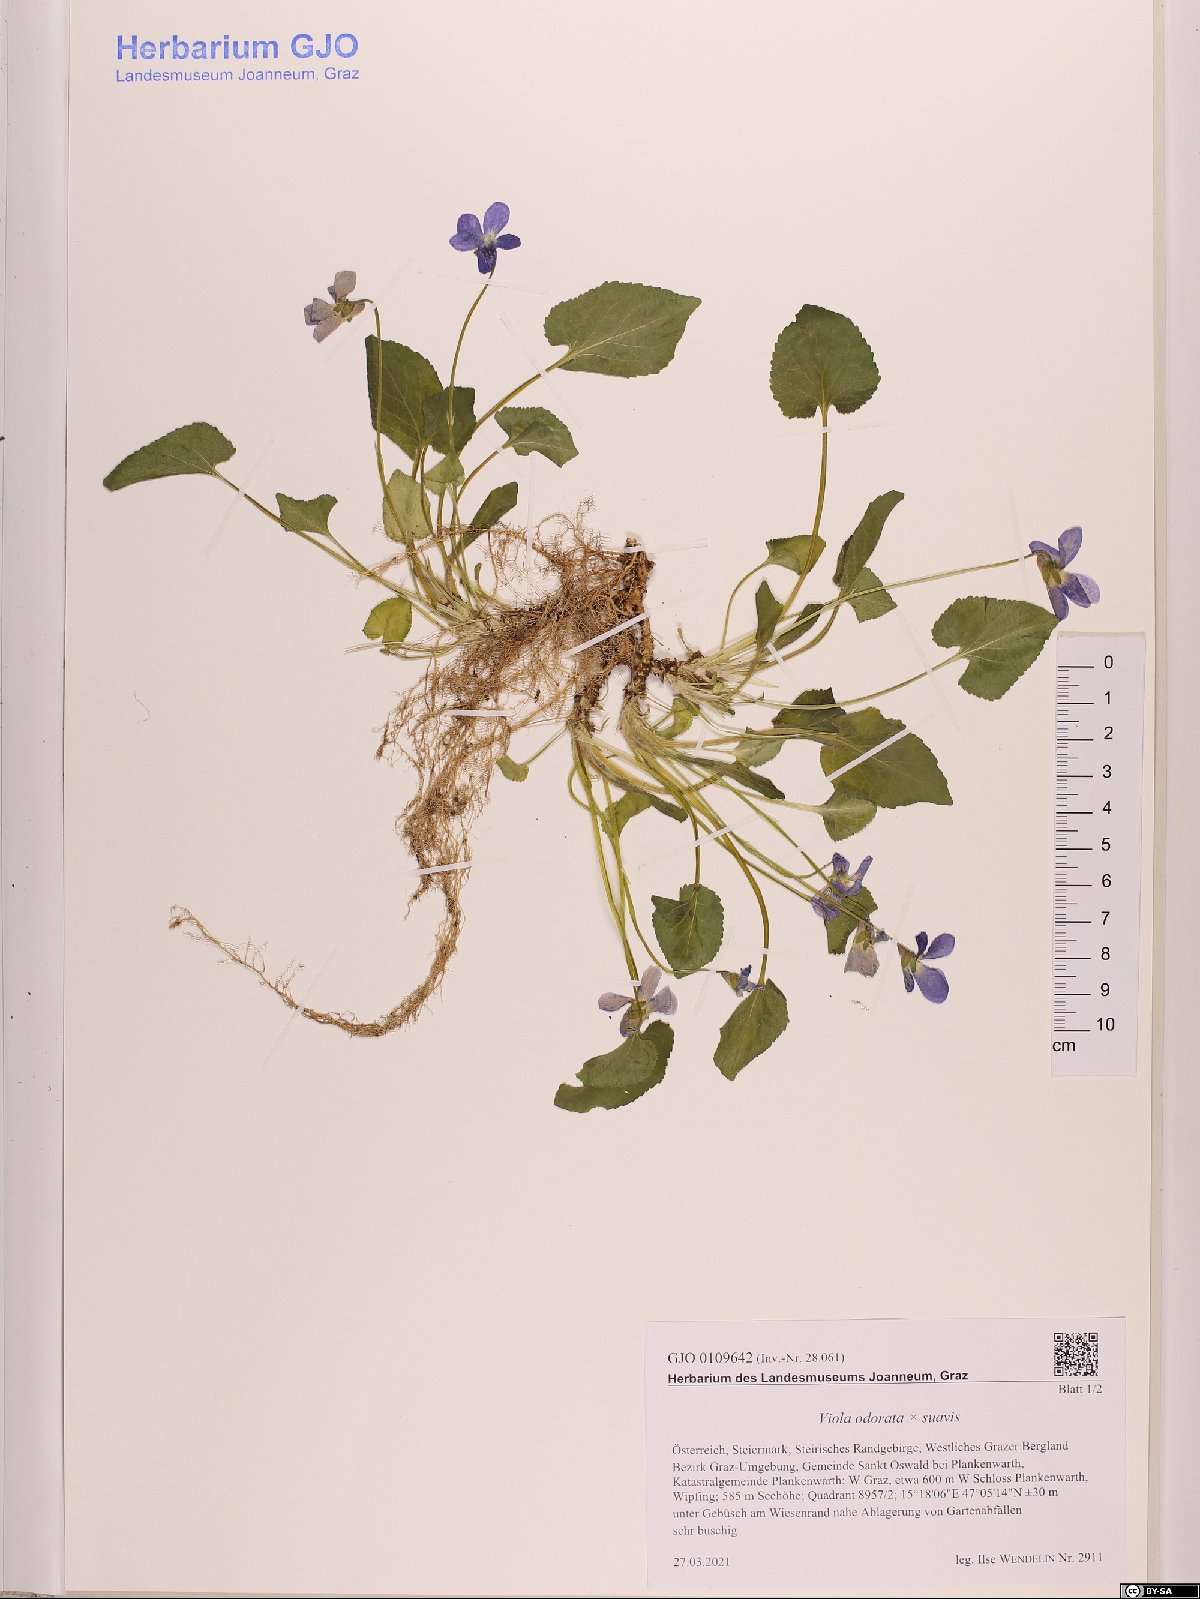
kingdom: Plantae
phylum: Tracheophyta
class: Magnoliopsida
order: Malpighiales
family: Violaceae
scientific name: Violaceae
